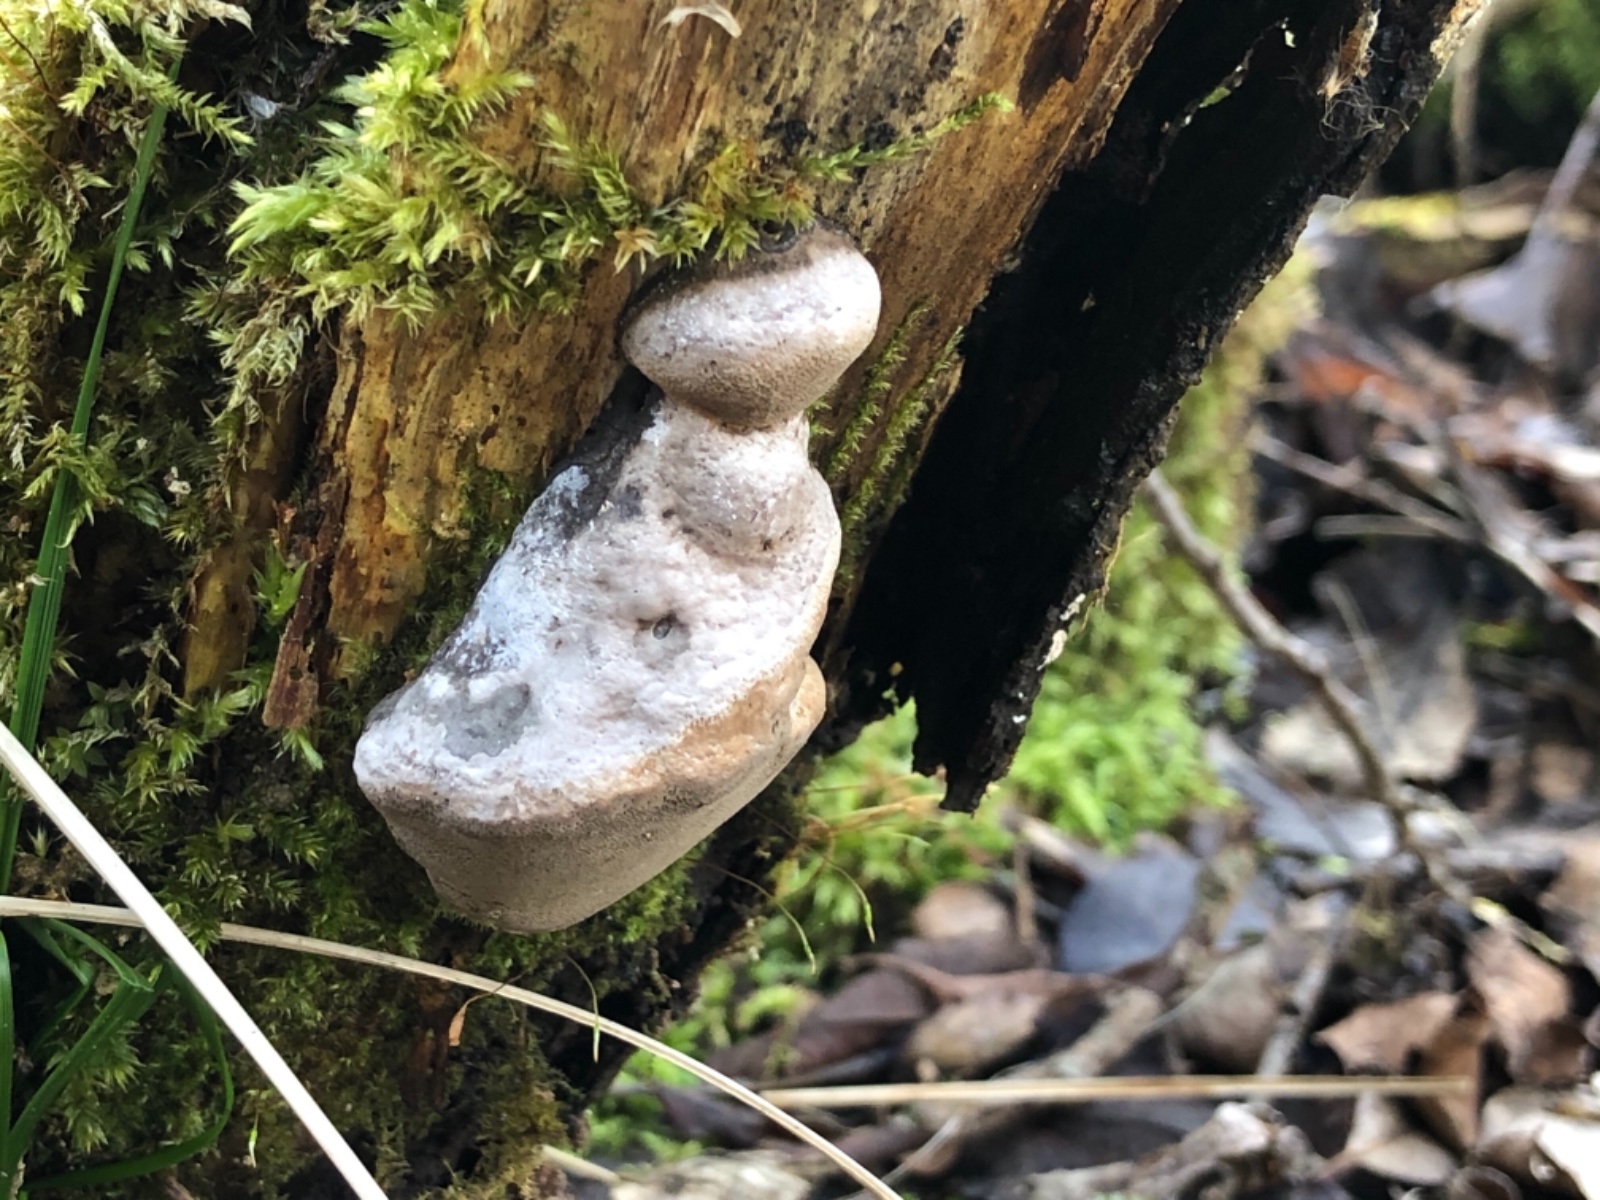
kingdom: Fungi
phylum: Basidiomycota
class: Agaricomycetes
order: Hymenochaetales
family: Hymenochaetaceae
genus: Phellinus
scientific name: Phellinus igniarius
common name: almindelig ildporesvamp
